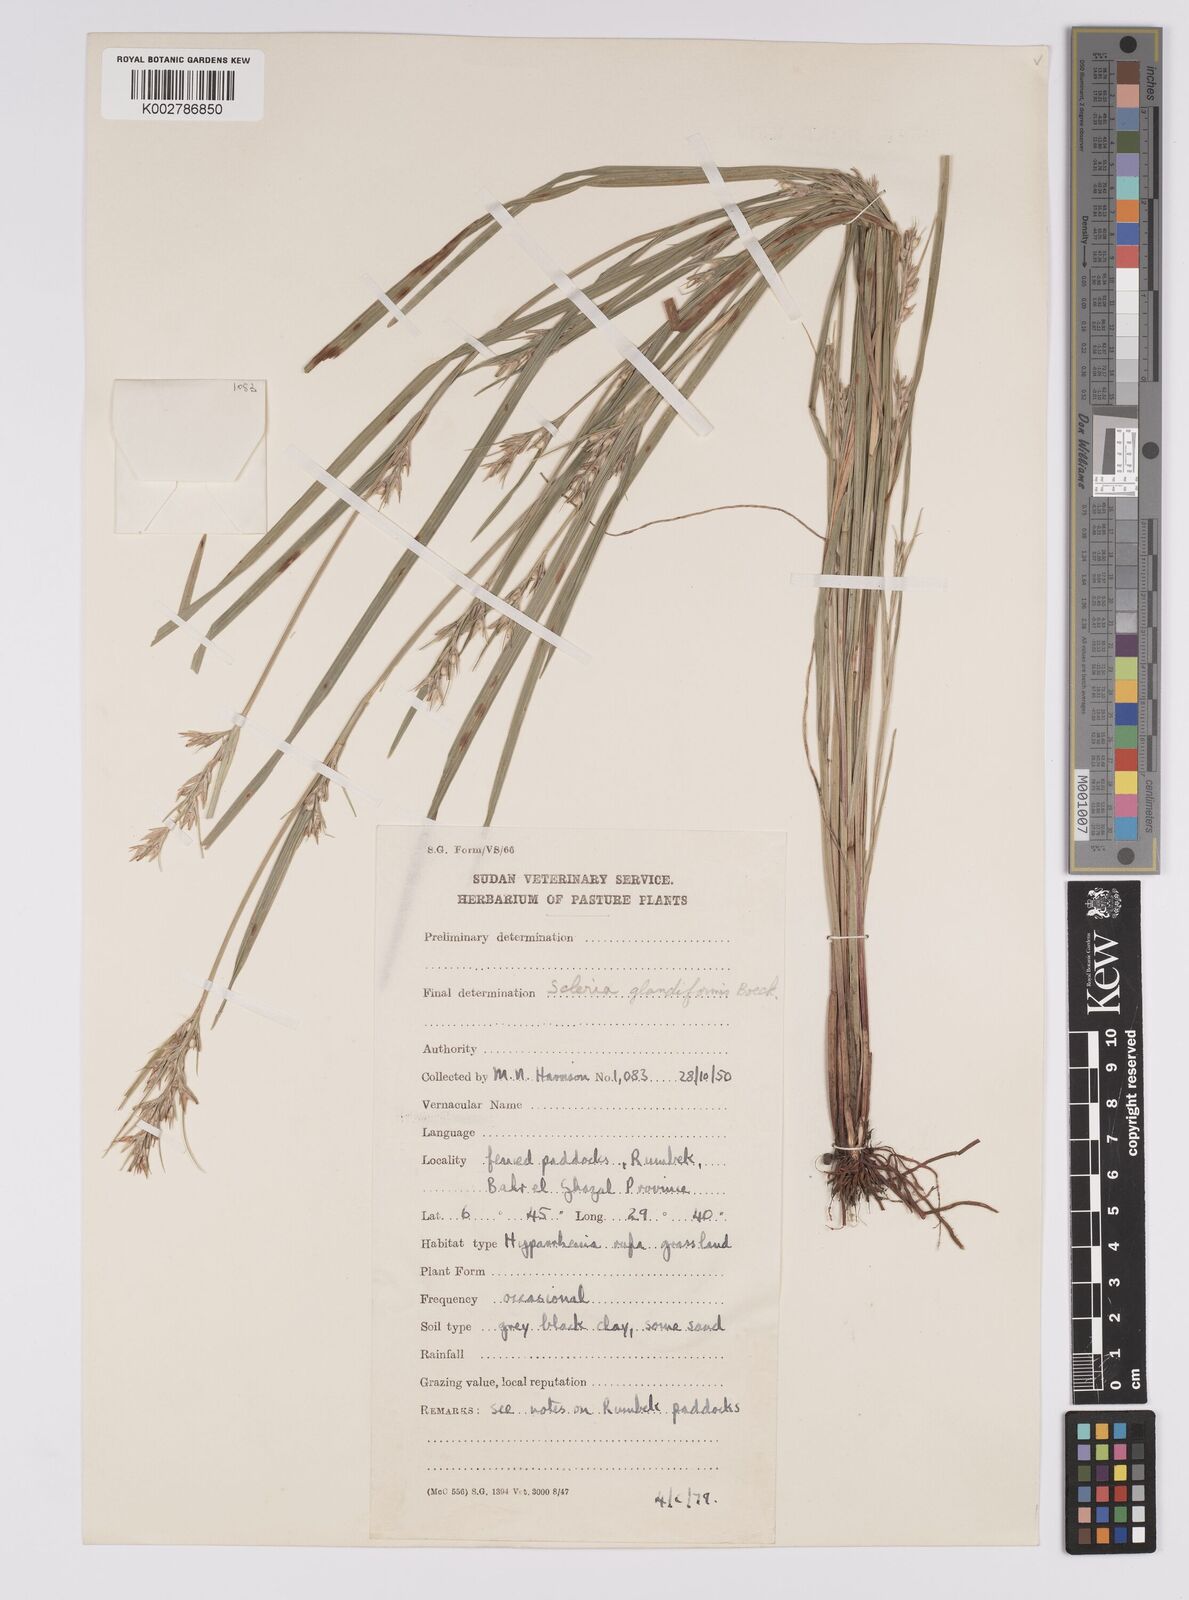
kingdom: Plantae
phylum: Tracheophyta
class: Liliopsida
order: Poales
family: Cyperaceae
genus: Scleria
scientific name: Scleria tessellata
